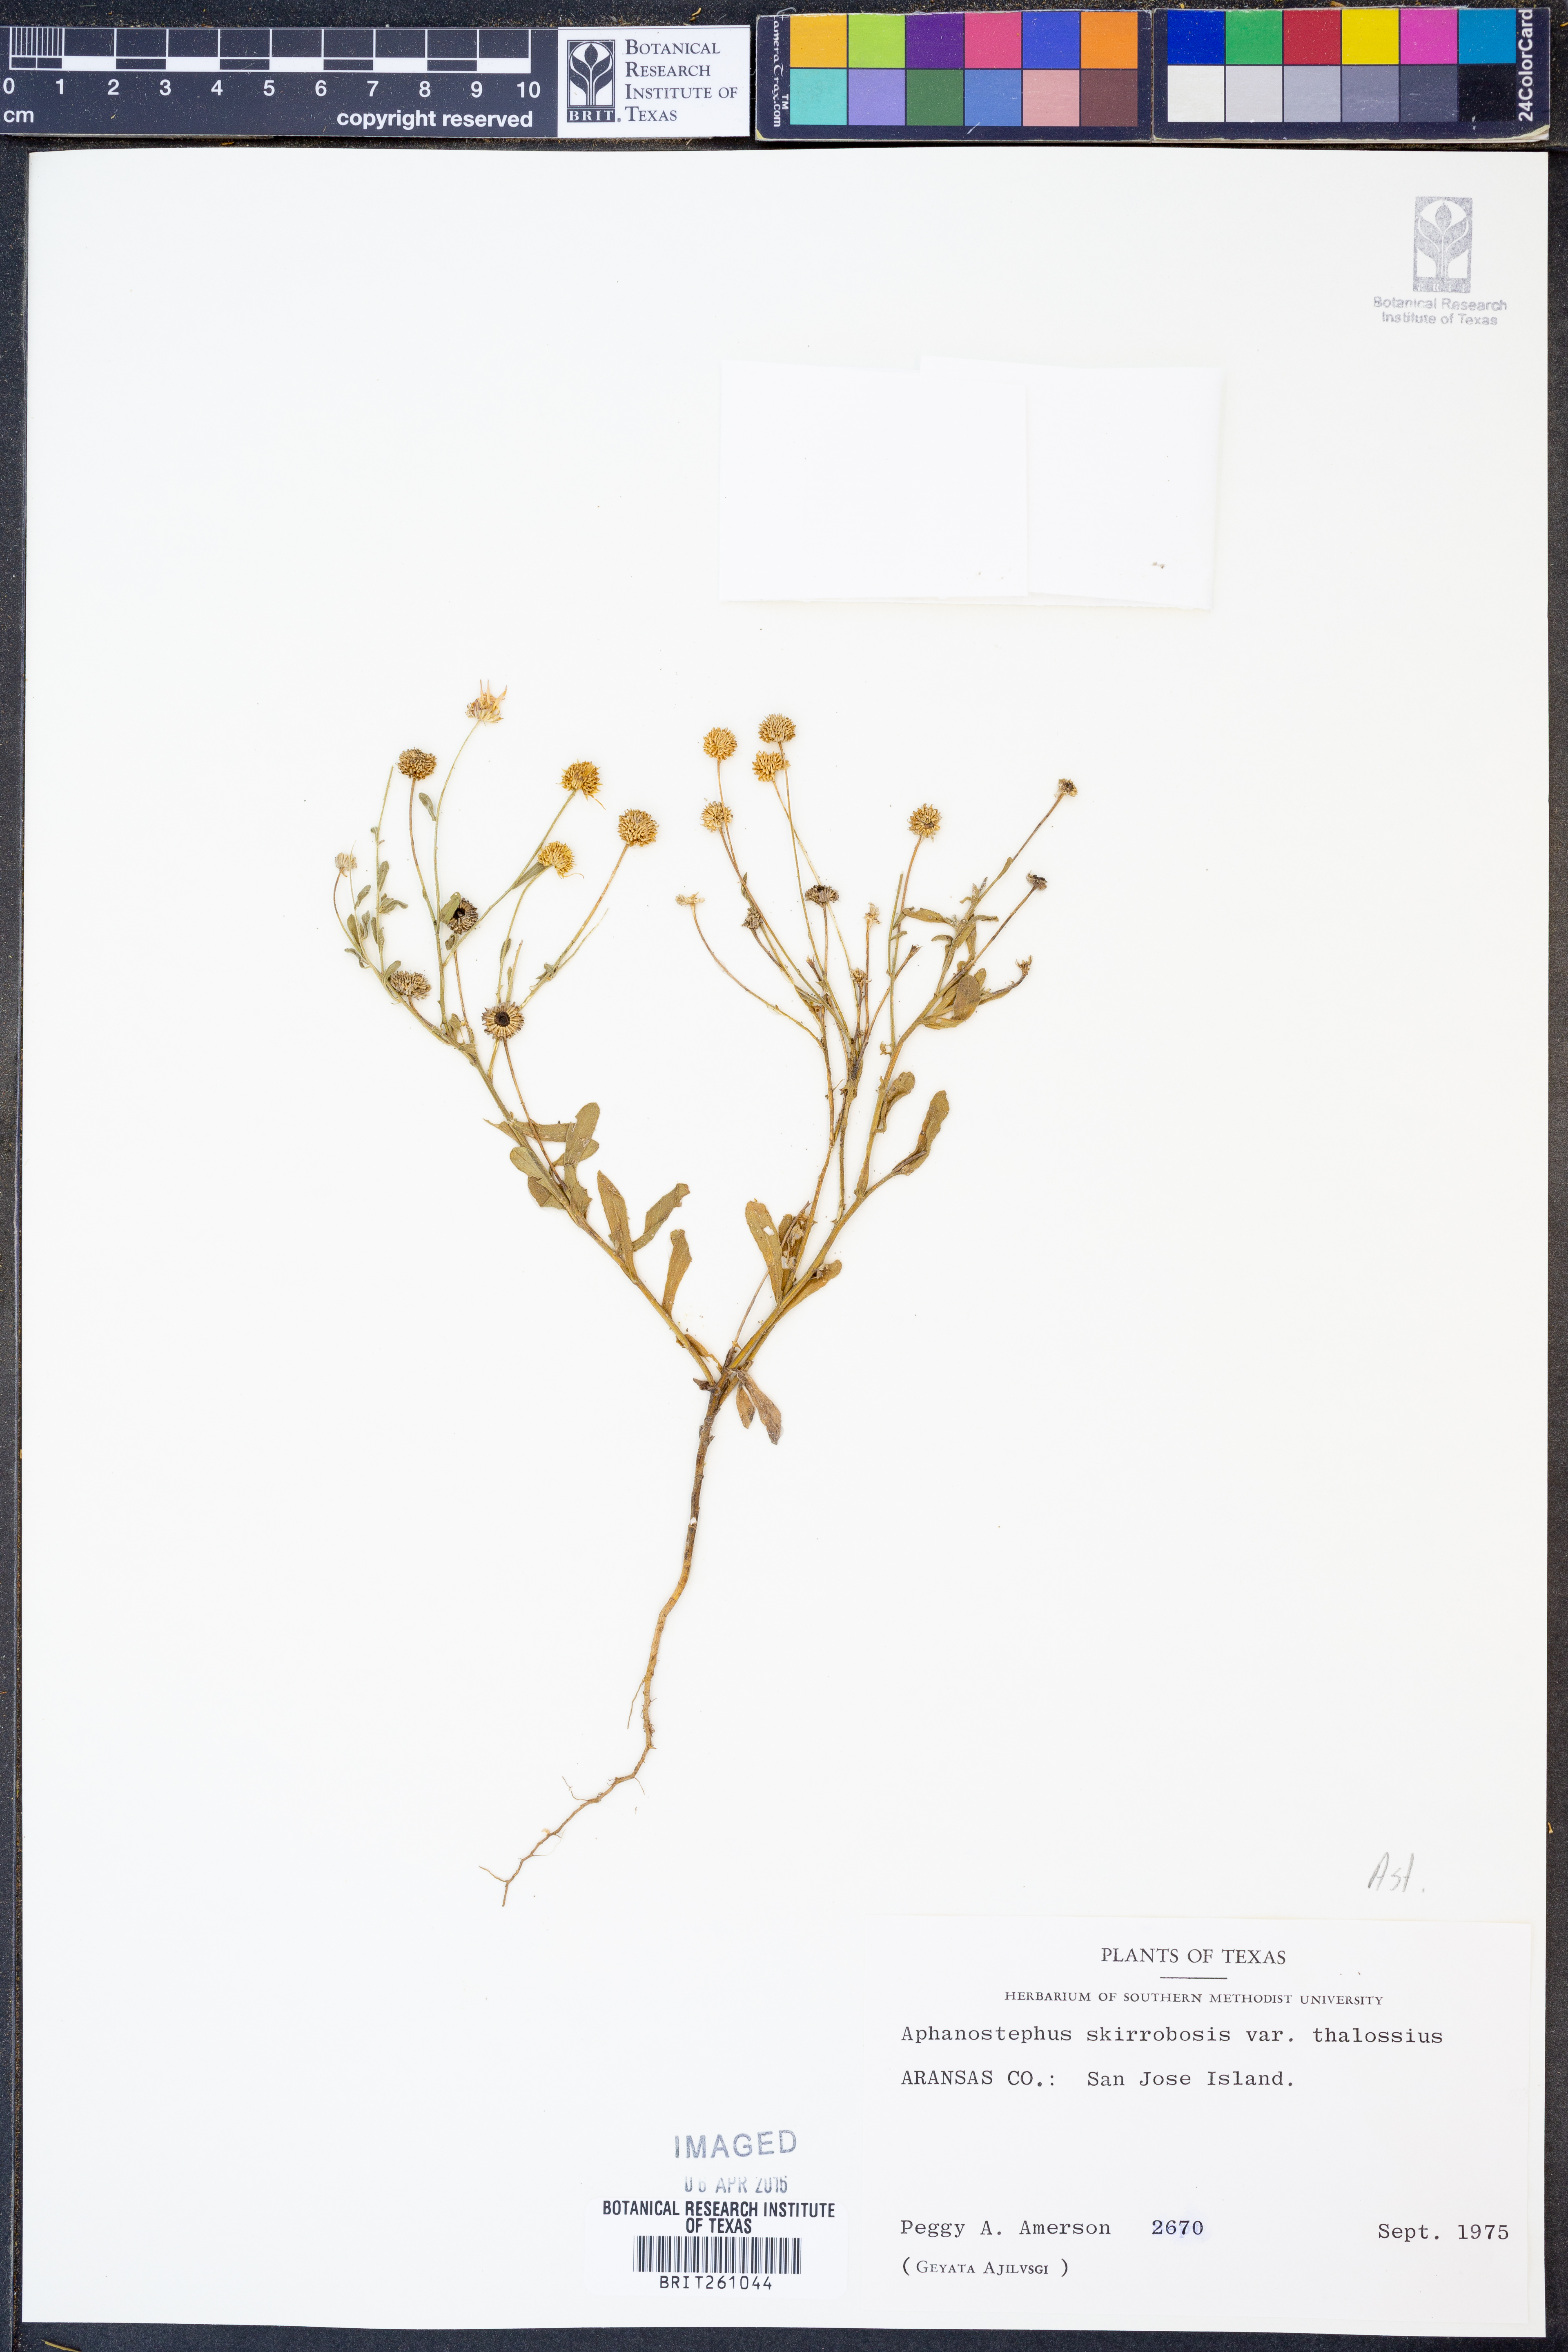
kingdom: Plantae
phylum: Tracheophyta
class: Magnoliopsida
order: Asterales
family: Asteraceae
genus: Aphanostephus
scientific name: Aphanostephus skirrhobasis
